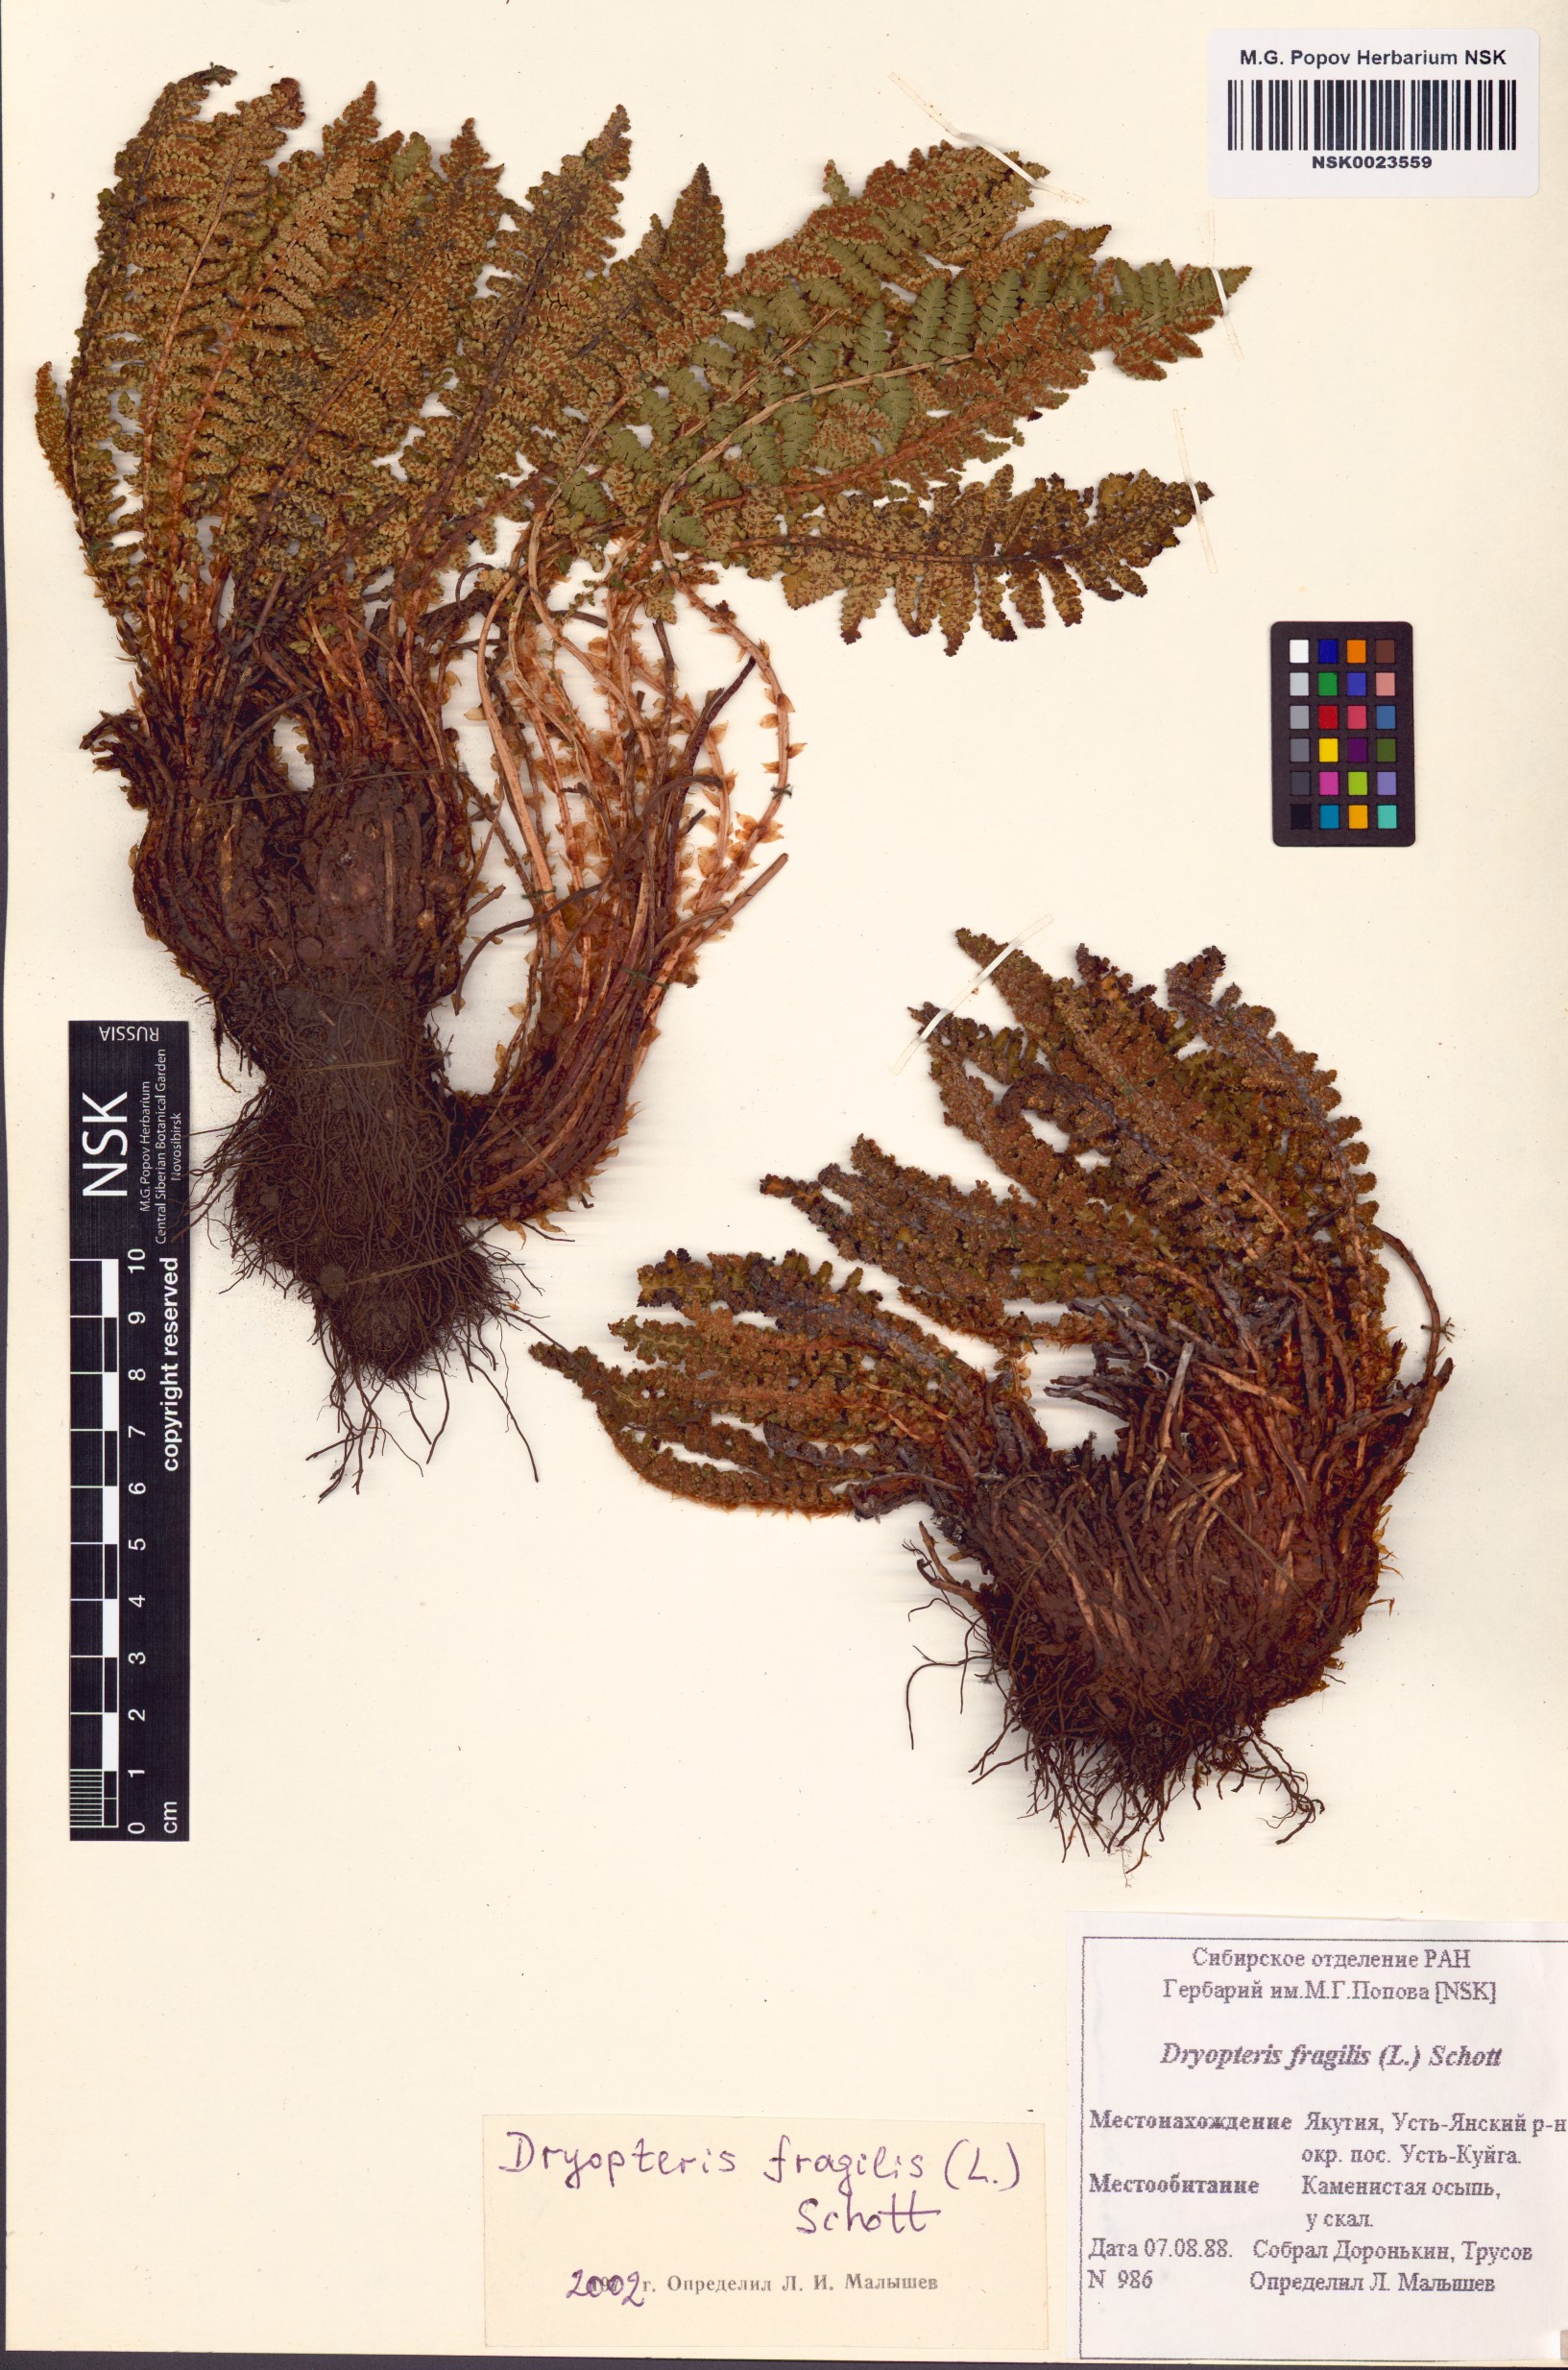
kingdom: Plantae
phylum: Tracheophyta
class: Polypodiopsida
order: Polypodiales
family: Dryopteridaceae
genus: Dryopteris
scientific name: Dryopteris fragrans
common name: Fragrant wood fern
